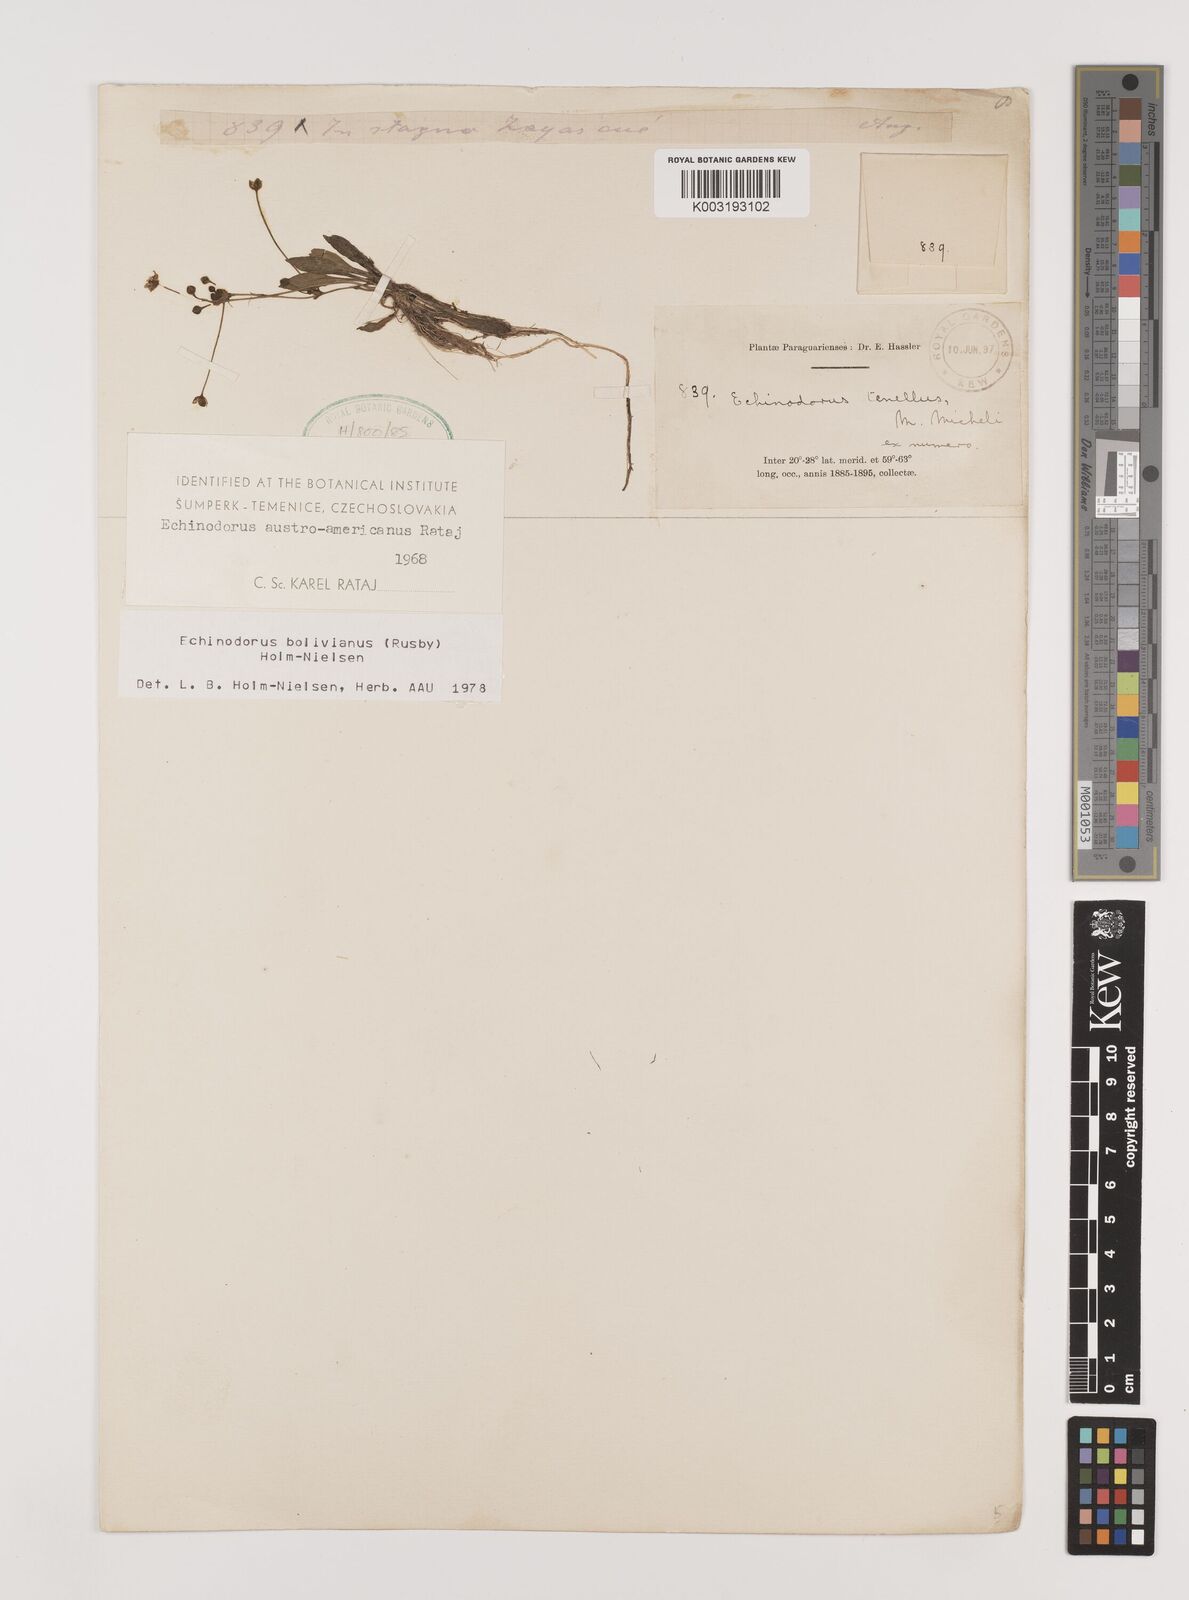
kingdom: Plantae
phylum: Tracheophyta
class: Liliopsida
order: Alismatales
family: Alismataceae
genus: Helanthium
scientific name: Helanthium bolivianum
